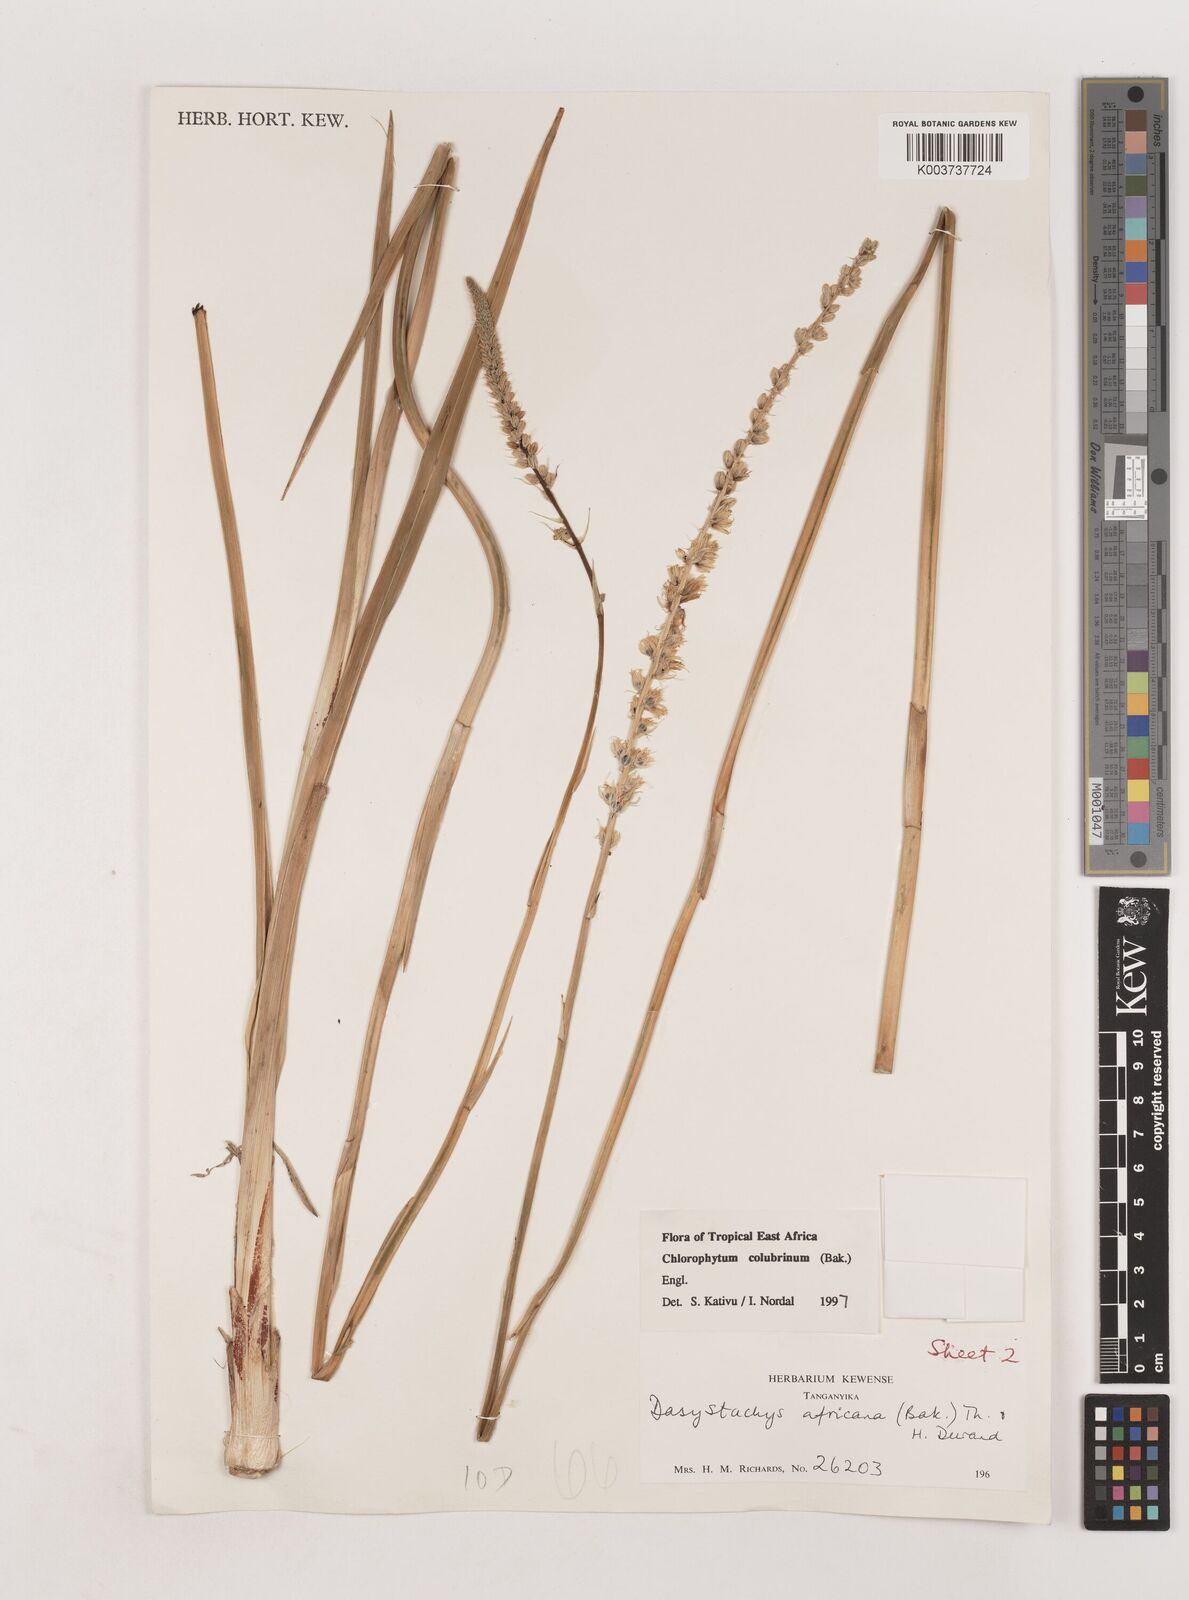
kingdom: Plantae
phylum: Tracheophyta
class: Liliopsida
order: Asparagales
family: Asparagaceae
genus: Chlorophytum
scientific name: Chlorophytum colubrinum
